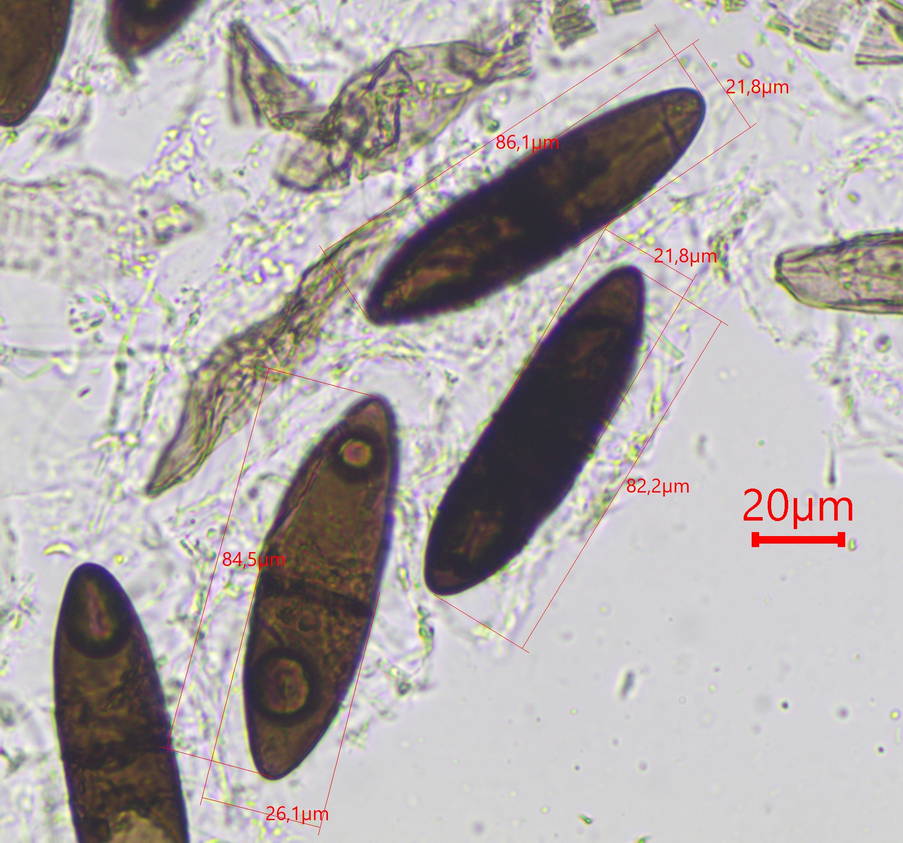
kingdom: Fungi
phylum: Ascomycota
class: Dothideomycetes
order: Pleosporales
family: Massariaceae
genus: Massaria
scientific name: Massaria inquinans
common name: ahorn-kulvulkan
